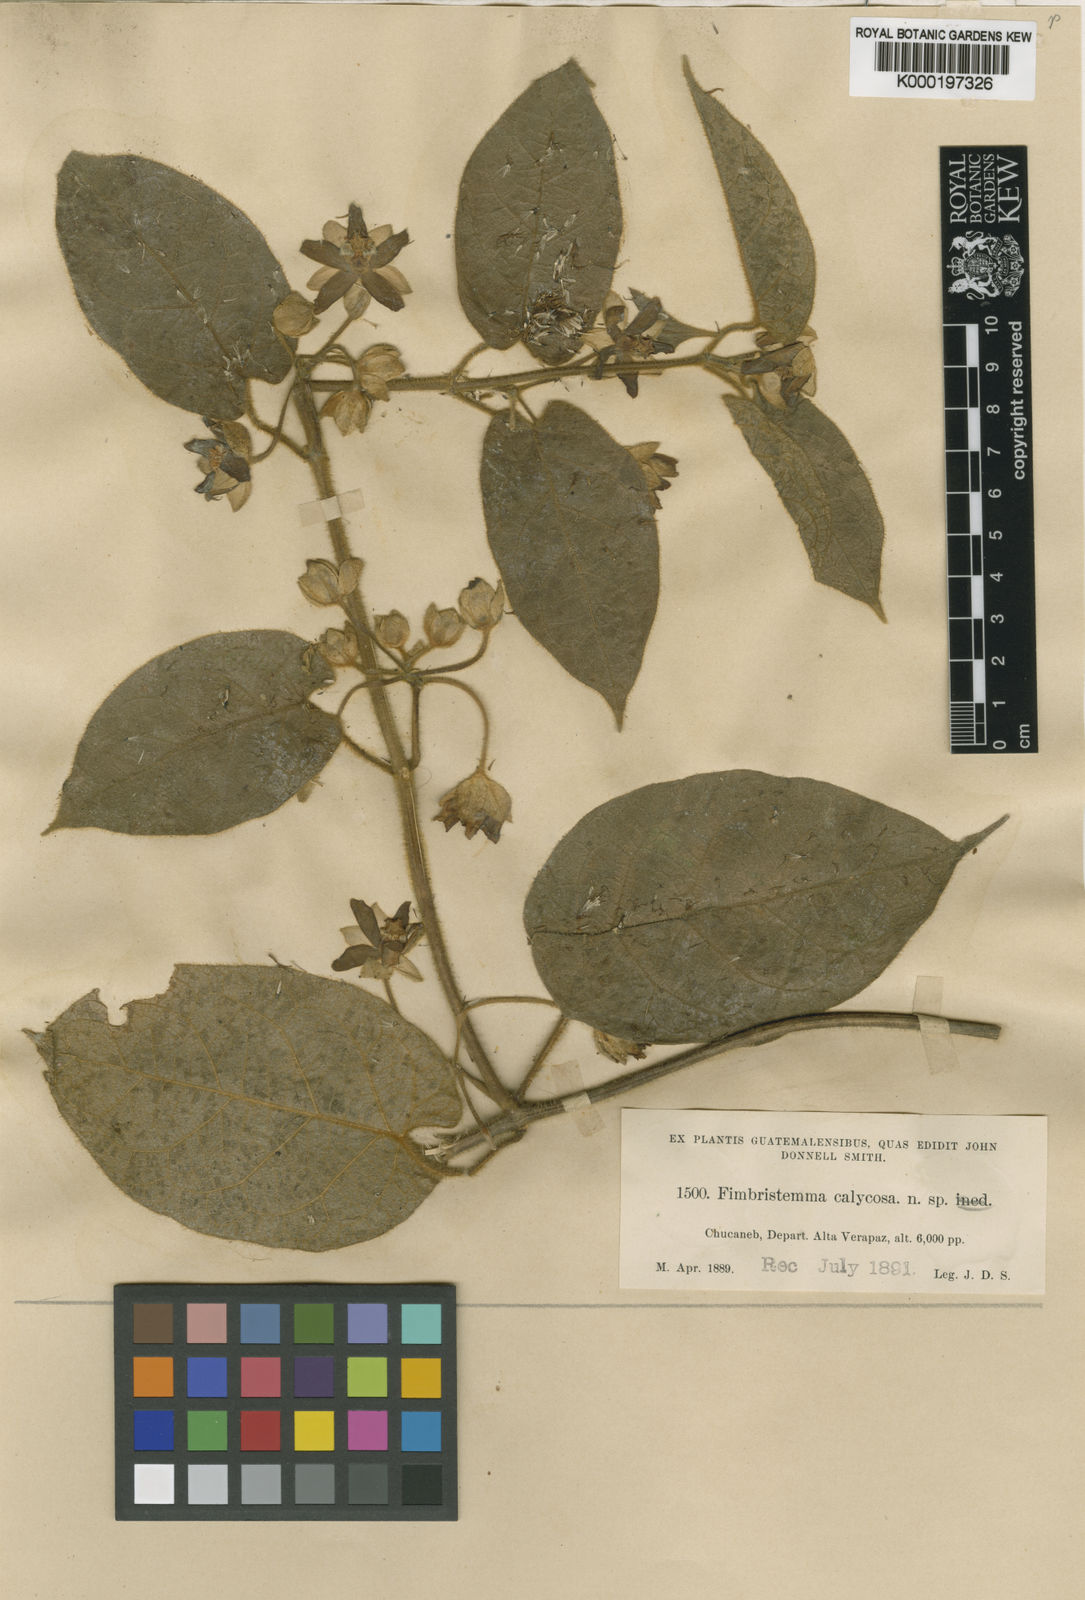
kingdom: Plantae
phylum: Tracheophyta
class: Magnoliopsida
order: Gentianales
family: Apocynaceae
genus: Gonolobus
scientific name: Gonolobus calycosus
